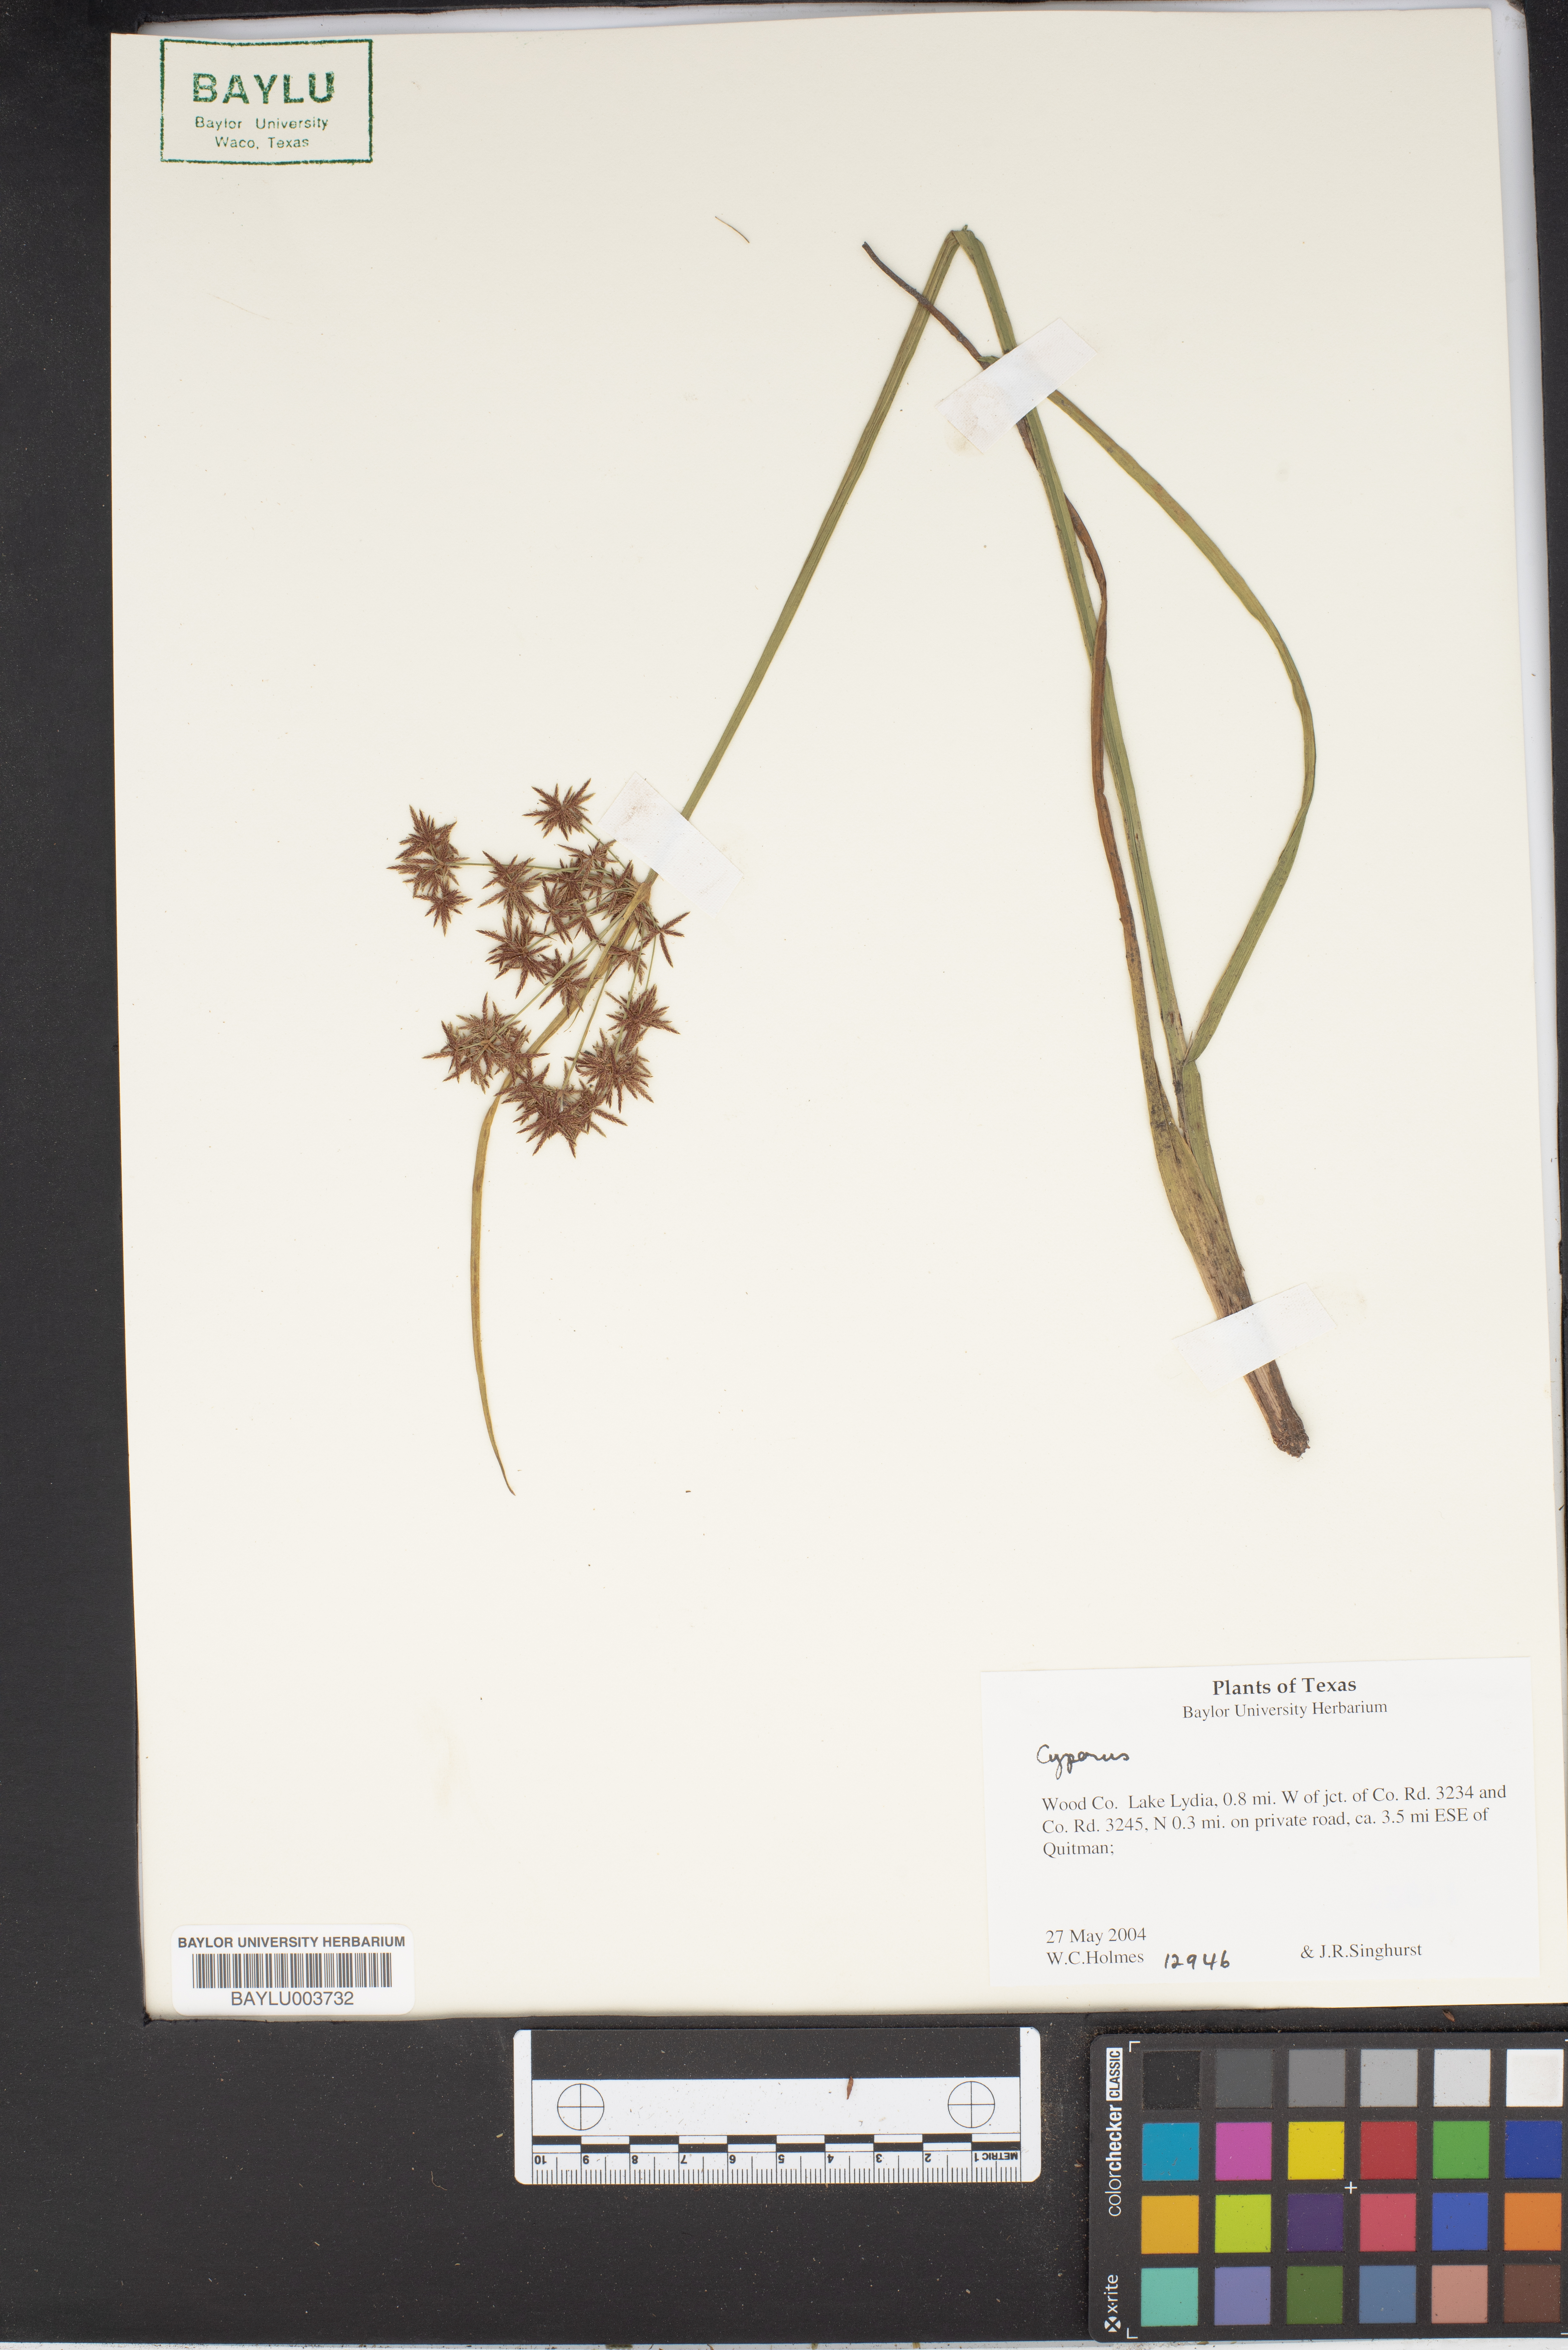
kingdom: Plantae
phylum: Tracheophyta
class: Liliopsida
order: Poales
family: Cyperaceae
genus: Cyperus
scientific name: Cyperus
